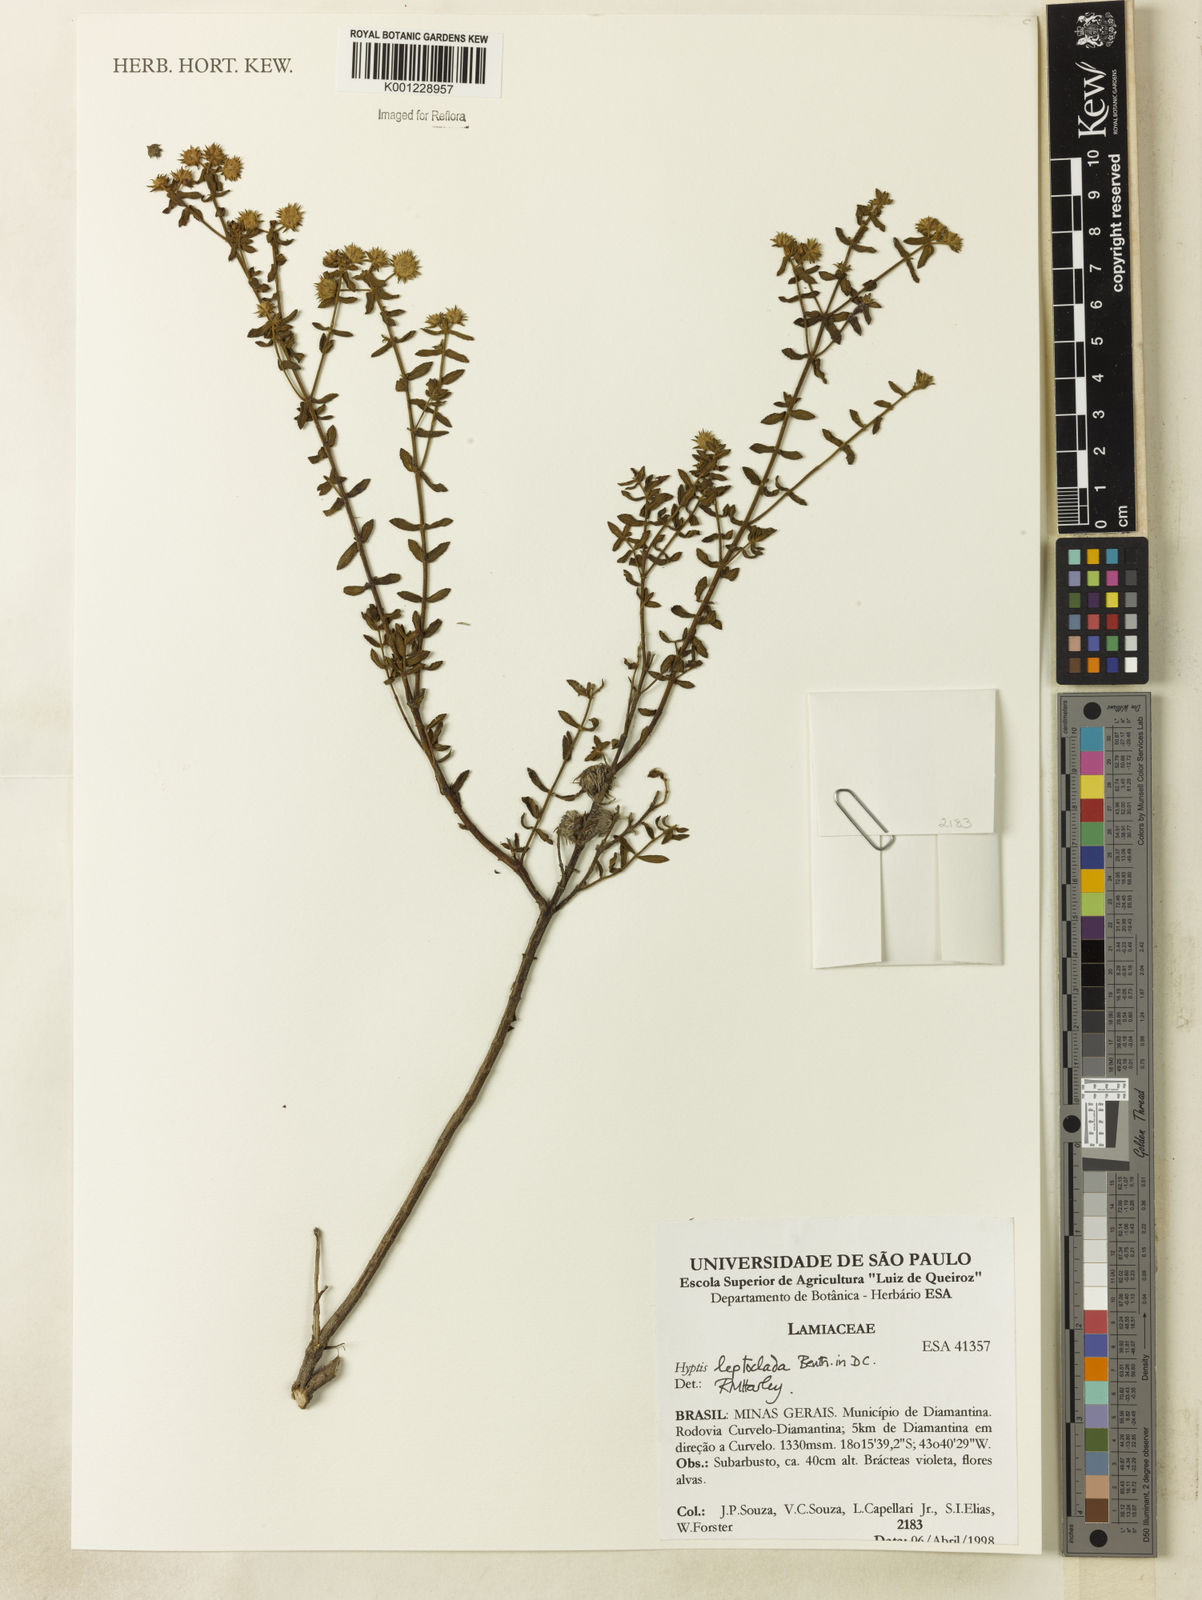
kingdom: Plantae
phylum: Tracheophyta
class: Magnoliopsida
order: Lamiales
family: Lamiaceae
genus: Hyptis
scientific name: Hyptis leptoclada
